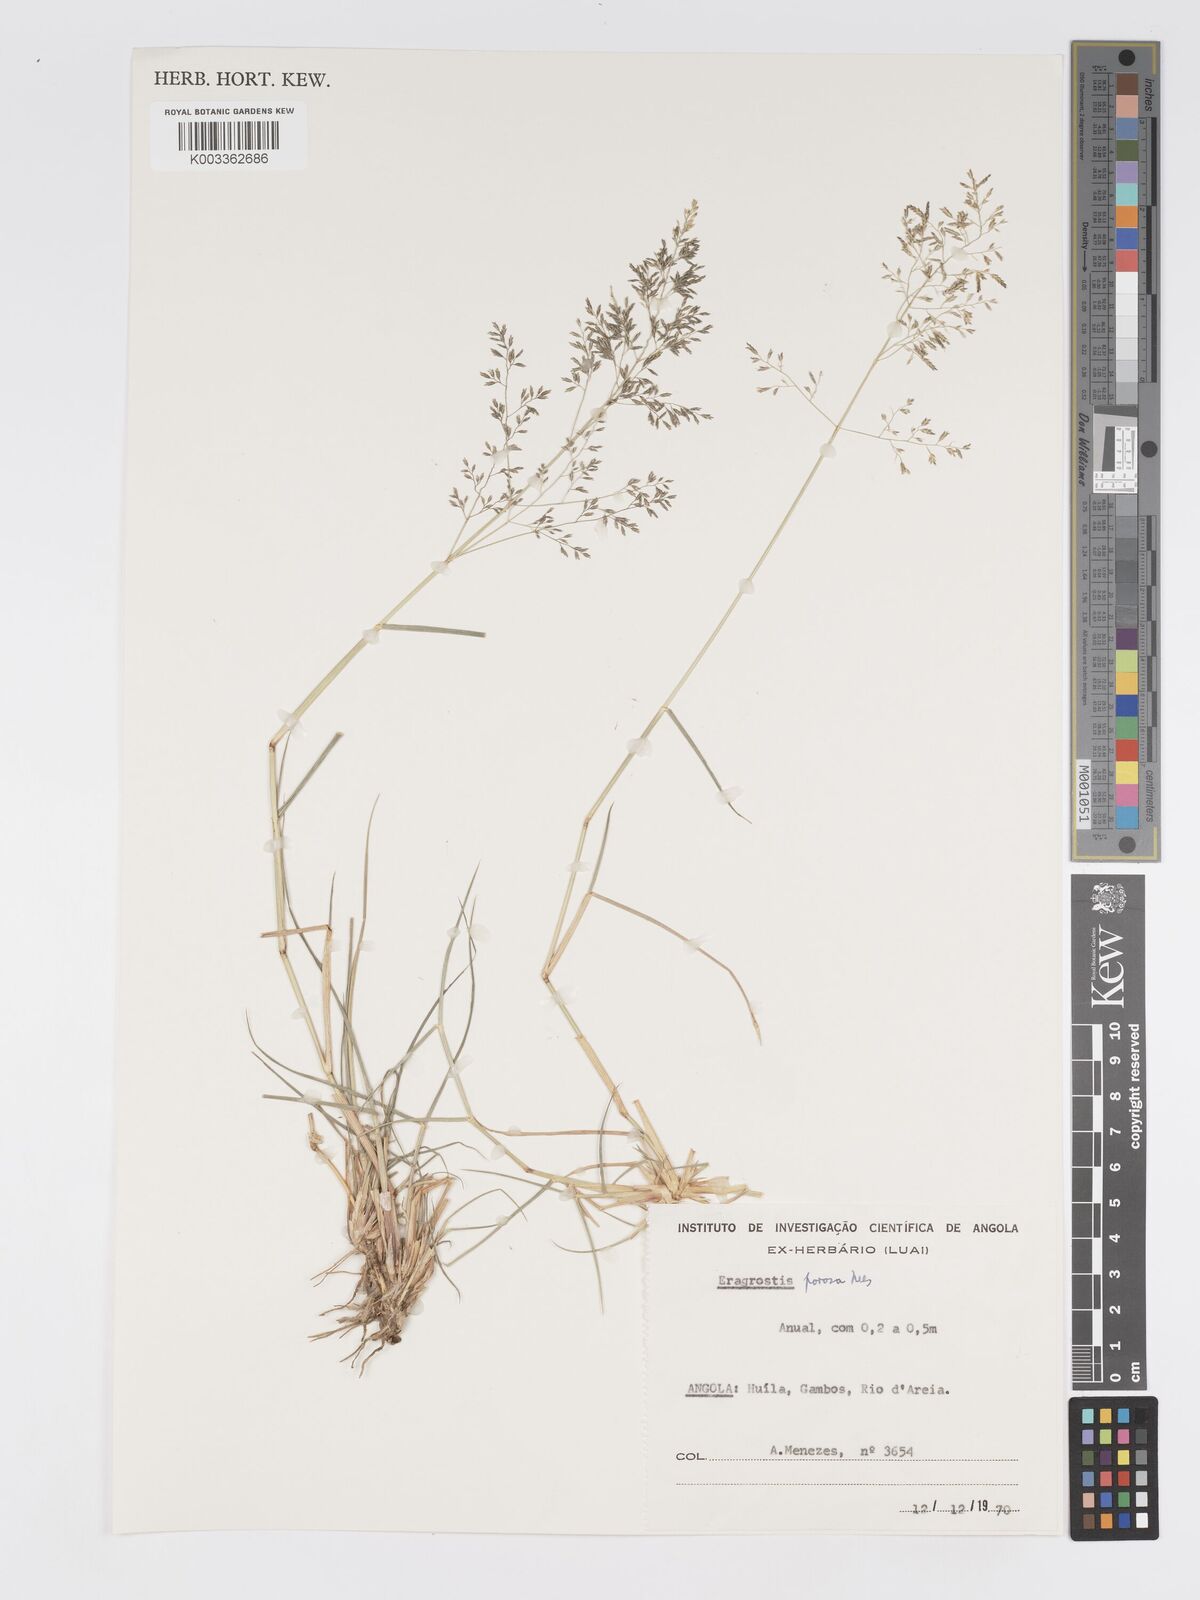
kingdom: Plantae
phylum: Tracheophyta
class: Liliopsida
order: Poales
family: Poaceae
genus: Eragrostis
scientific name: Eragrostis porosa
